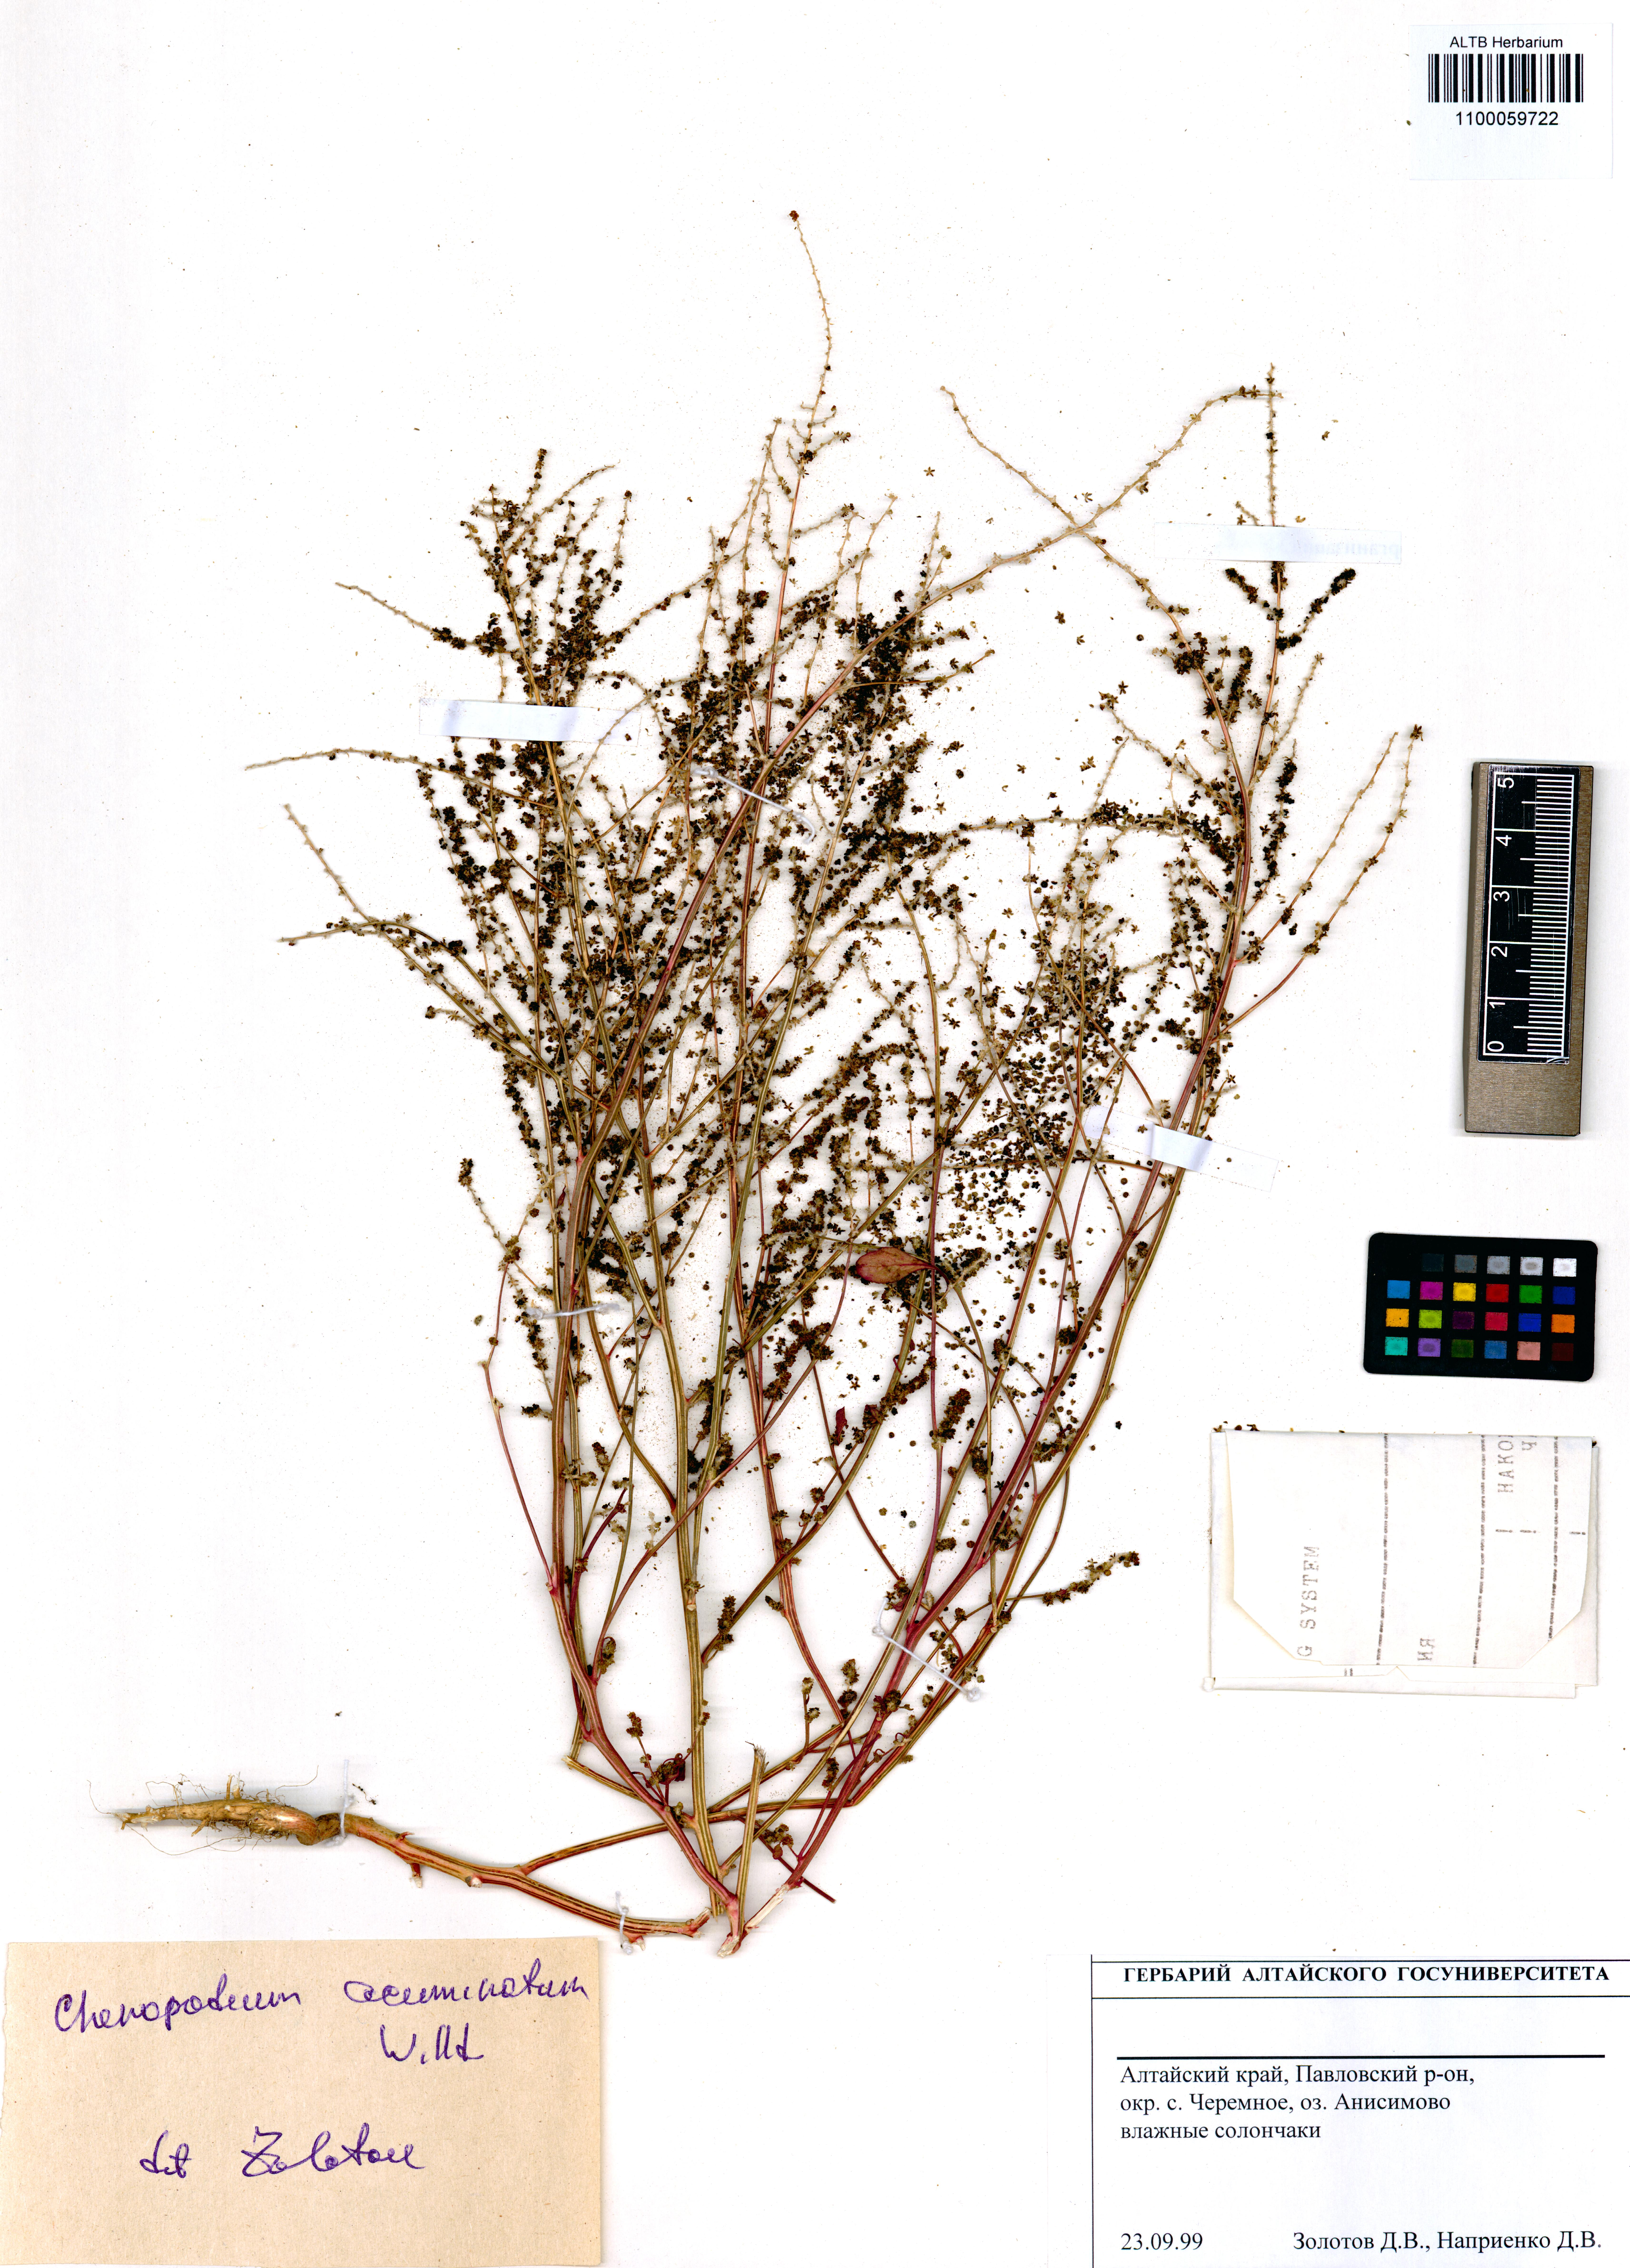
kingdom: Plantae
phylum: Tracheophyta
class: Magnoliopsida
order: Caryophyllales
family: Amaranthaceae
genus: Chenopodium
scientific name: Chenopodium acuminatum
